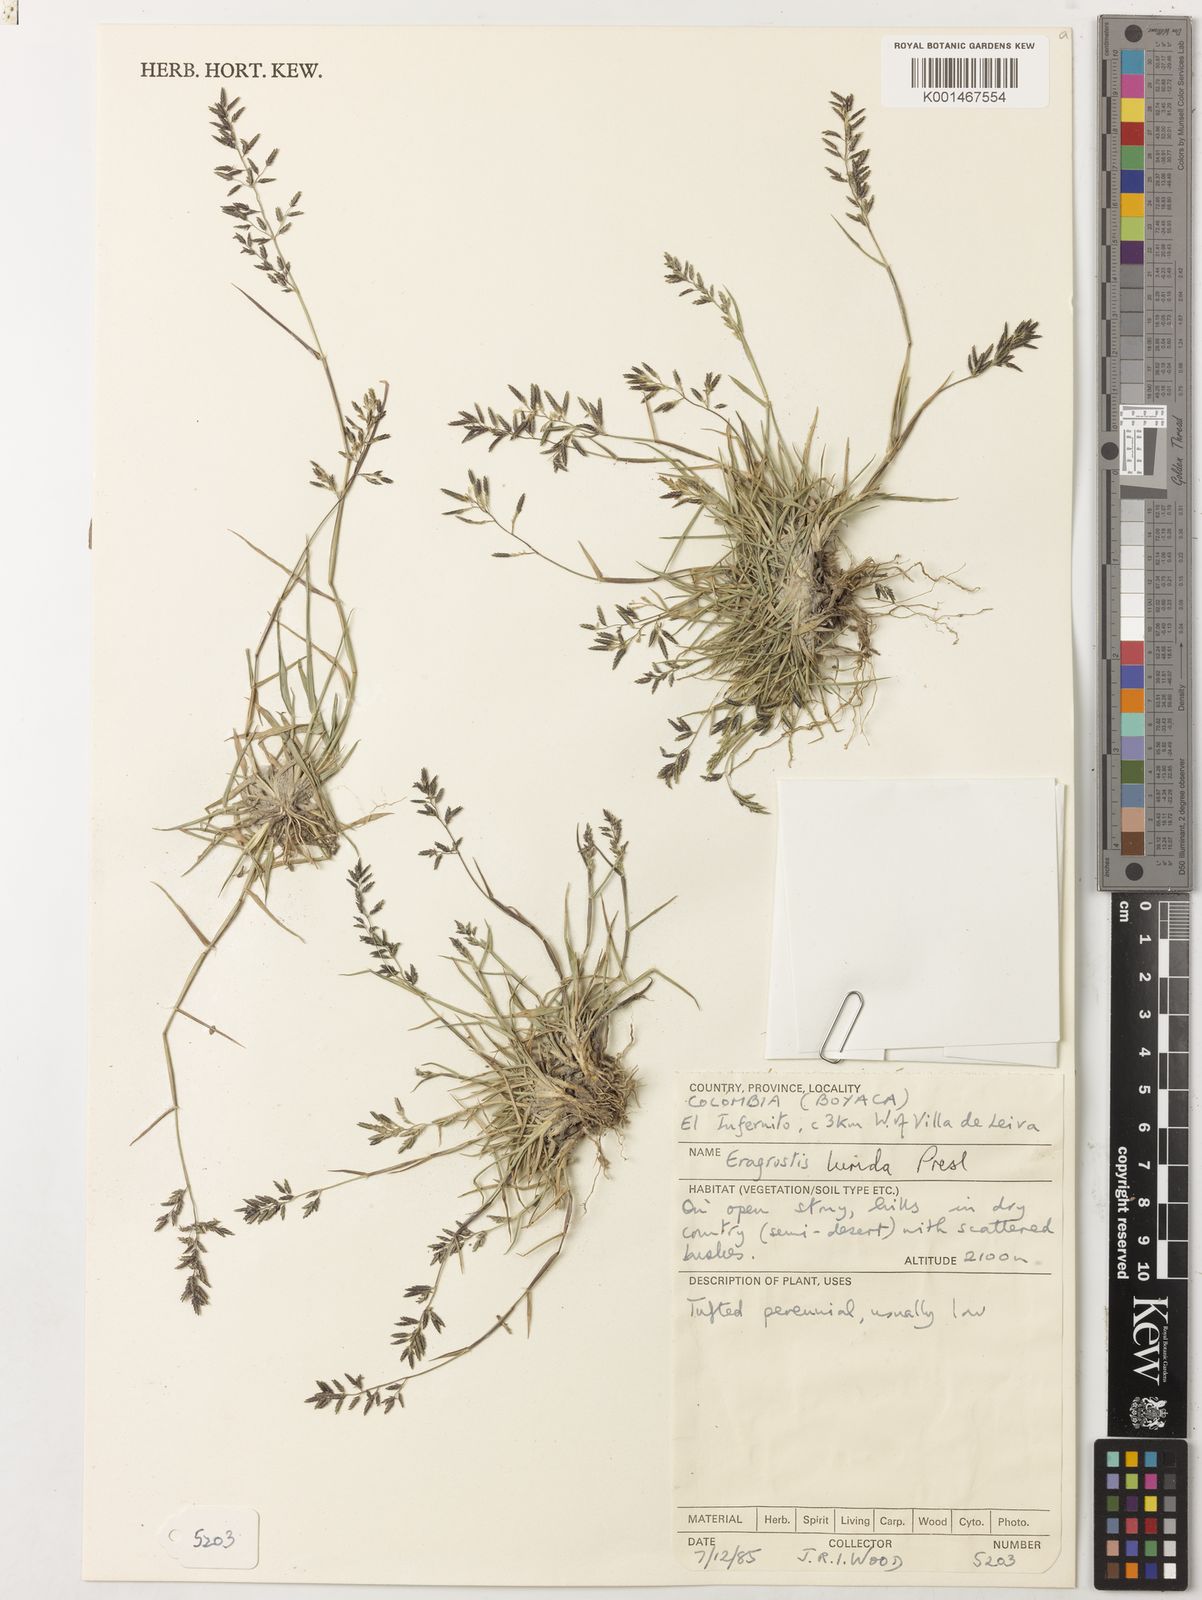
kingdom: Plantae
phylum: Tracheophyta
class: Liliopsida
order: Poales
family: Poaceae
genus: Eragrostis
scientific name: Eragrostis lurida
